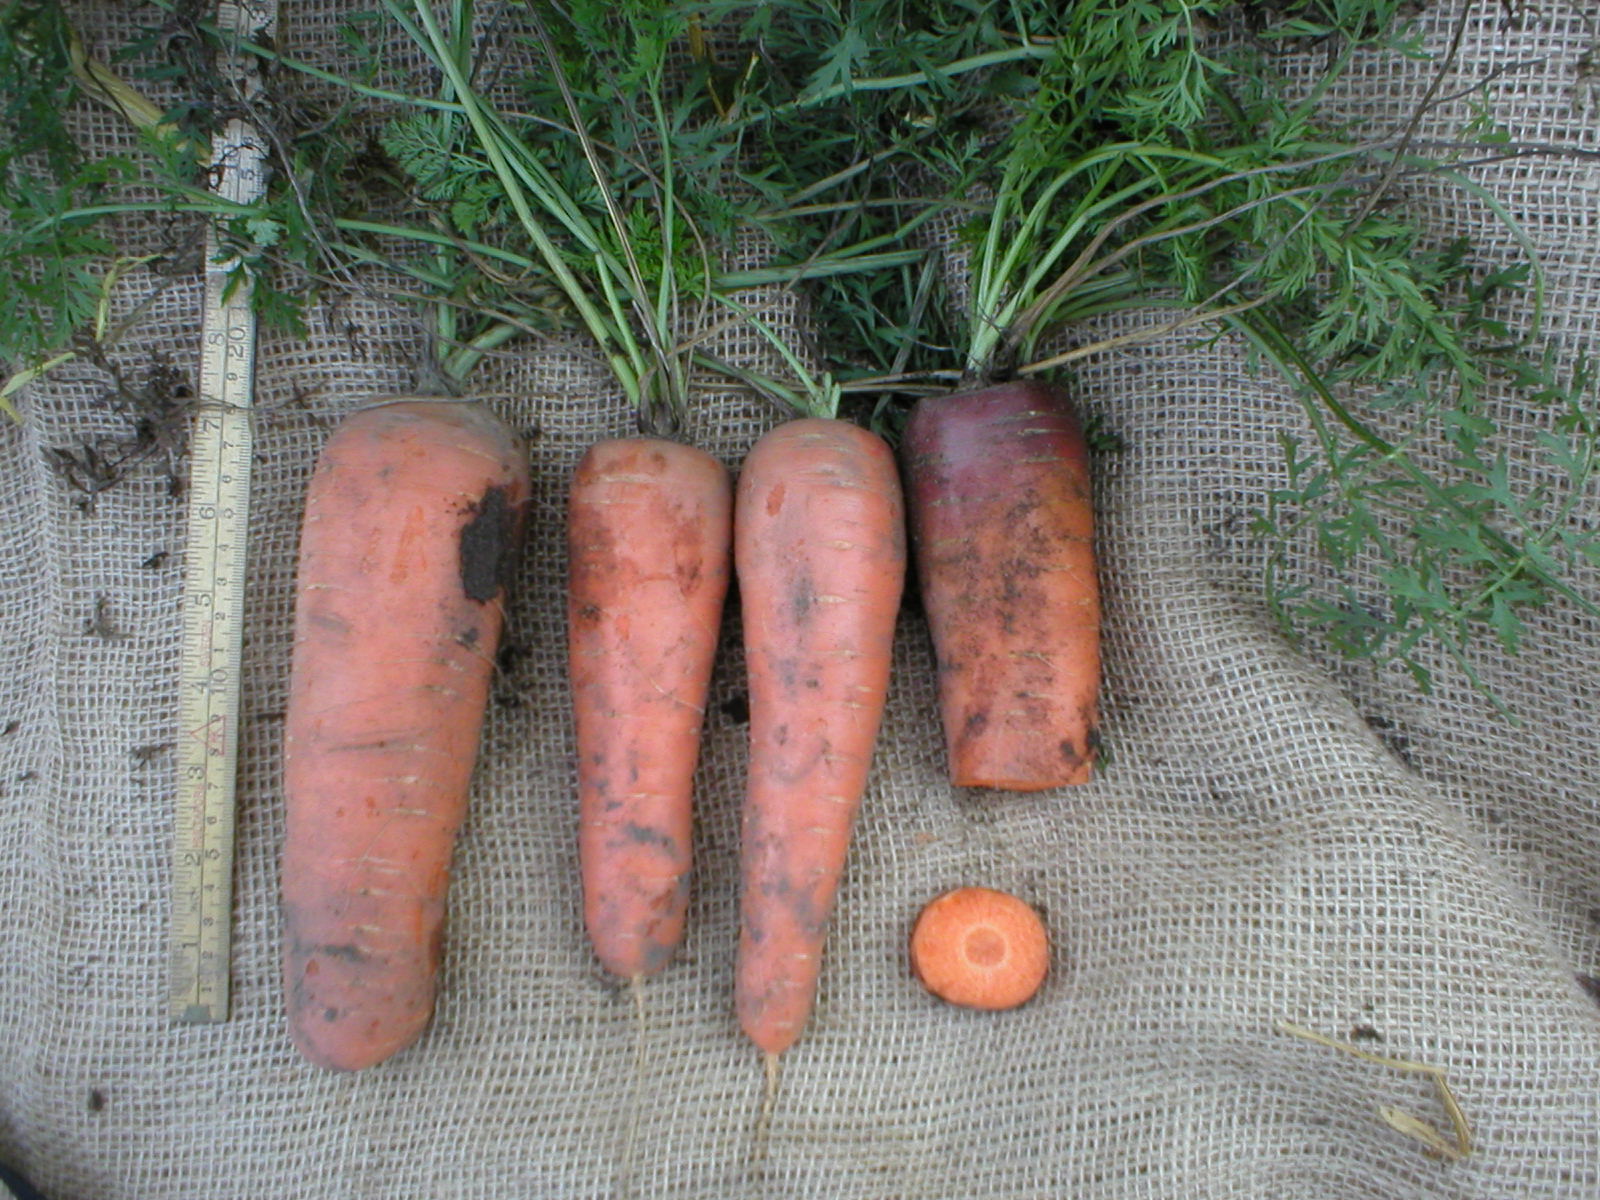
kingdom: Plantae
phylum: Tracheophyta
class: Magnoliopsida
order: Apiales
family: Apiaceae
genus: Daucus
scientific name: Daucus carota
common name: Wild carrot
